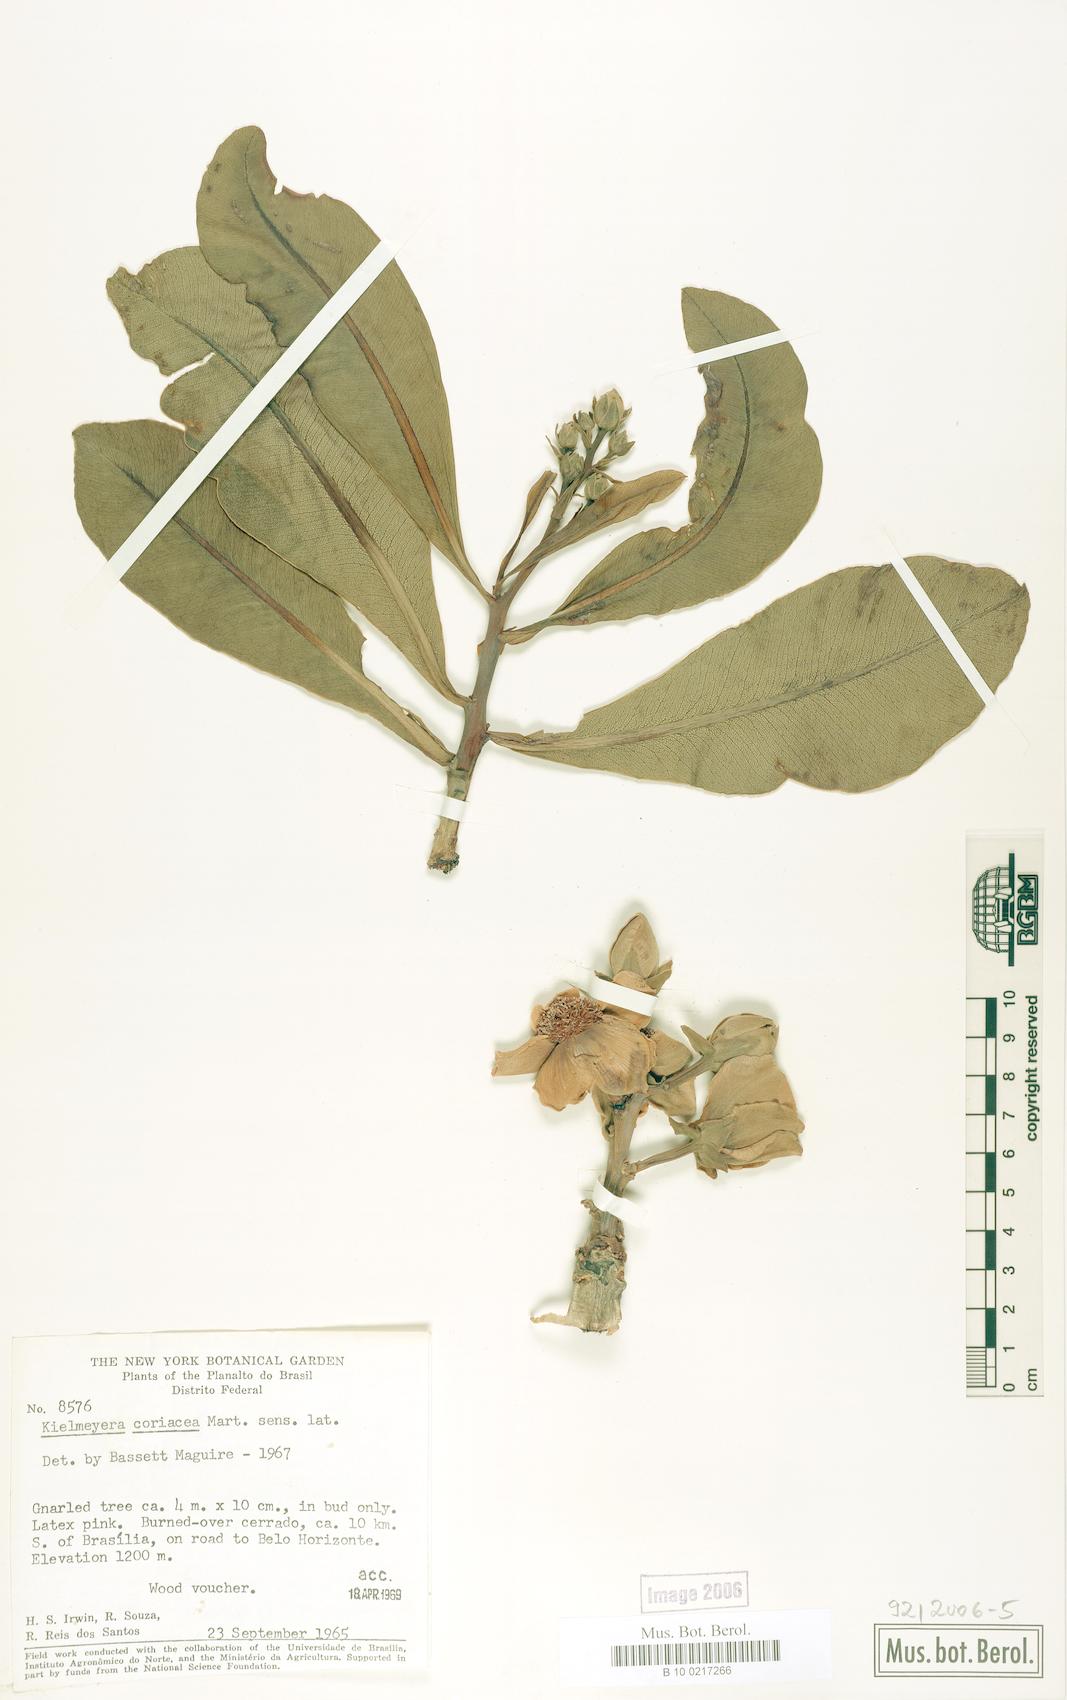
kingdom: Plantae
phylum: Tracheophyta
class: Magnoliopsida
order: Malpighiales
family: Calophyllaceae
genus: Kielmeyera
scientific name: Kielmeyera coriacea
